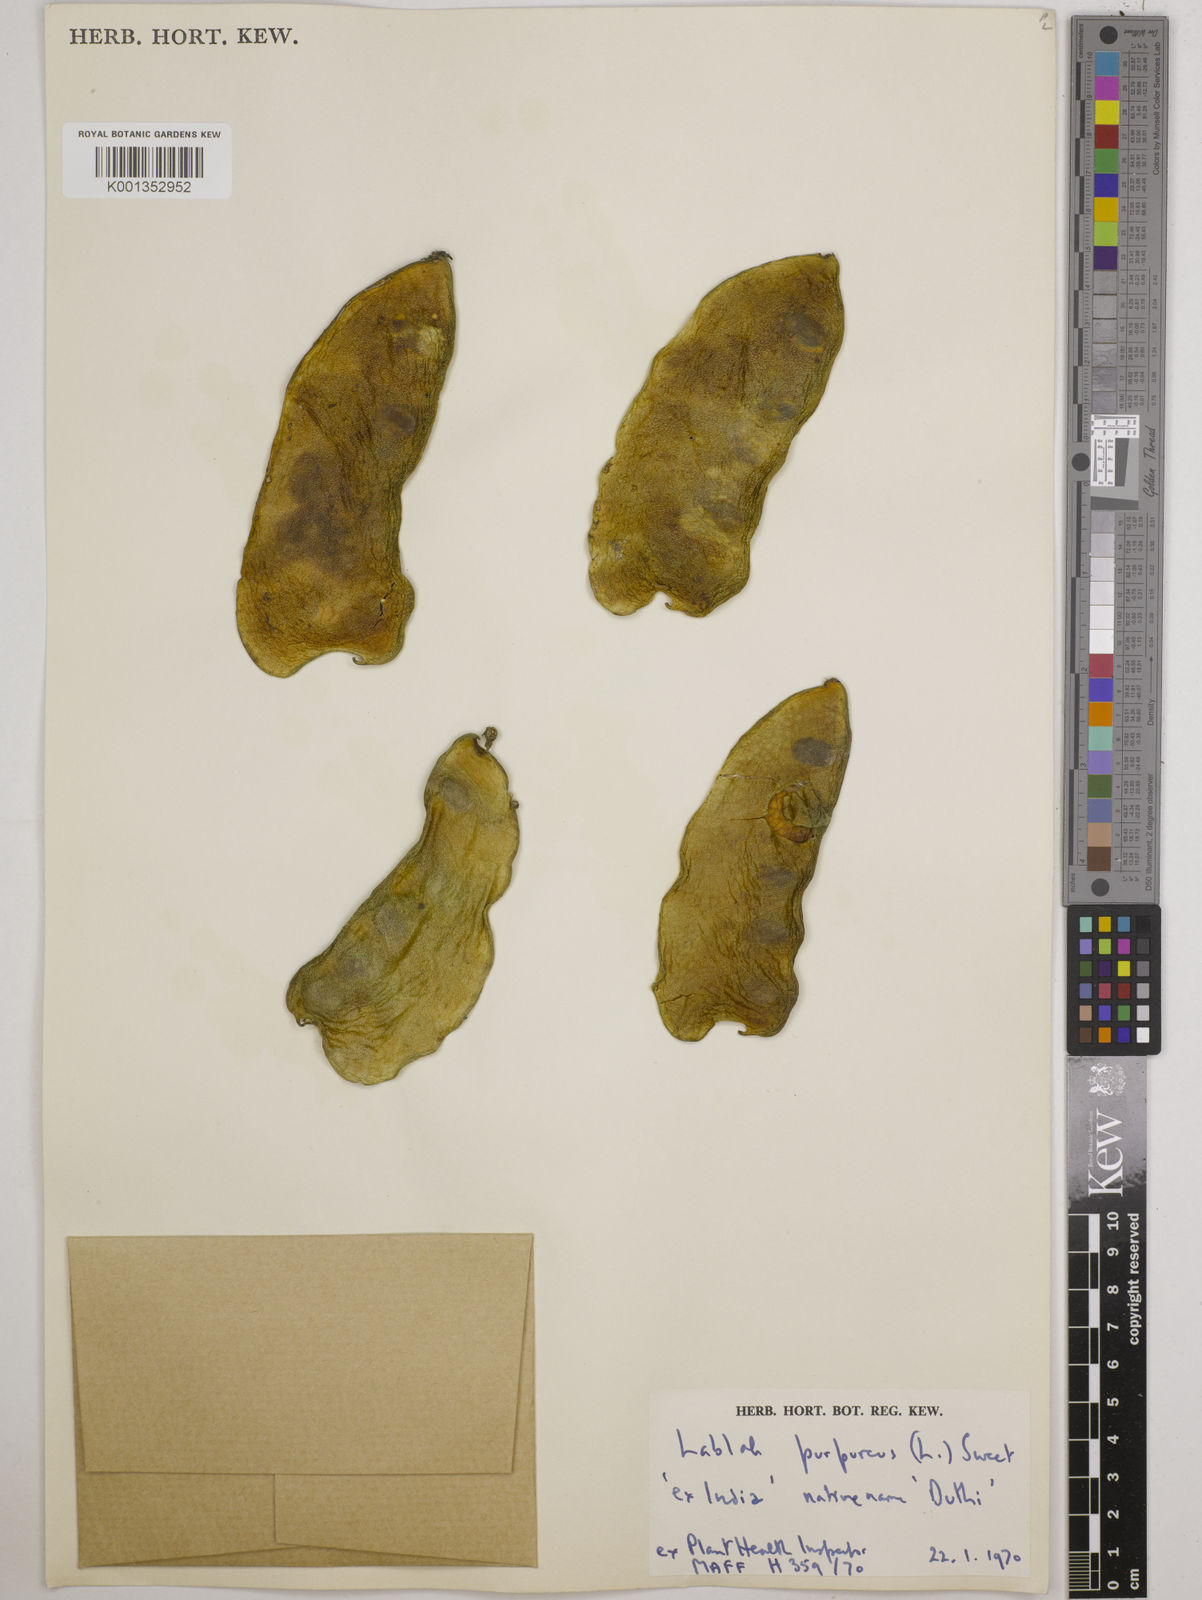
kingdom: Plantae
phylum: Tracheophyta
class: Magnoliopsida
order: Fabales
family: Fabaceae
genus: Lablab
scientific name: Lablab purpureus
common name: Lablab-bean
